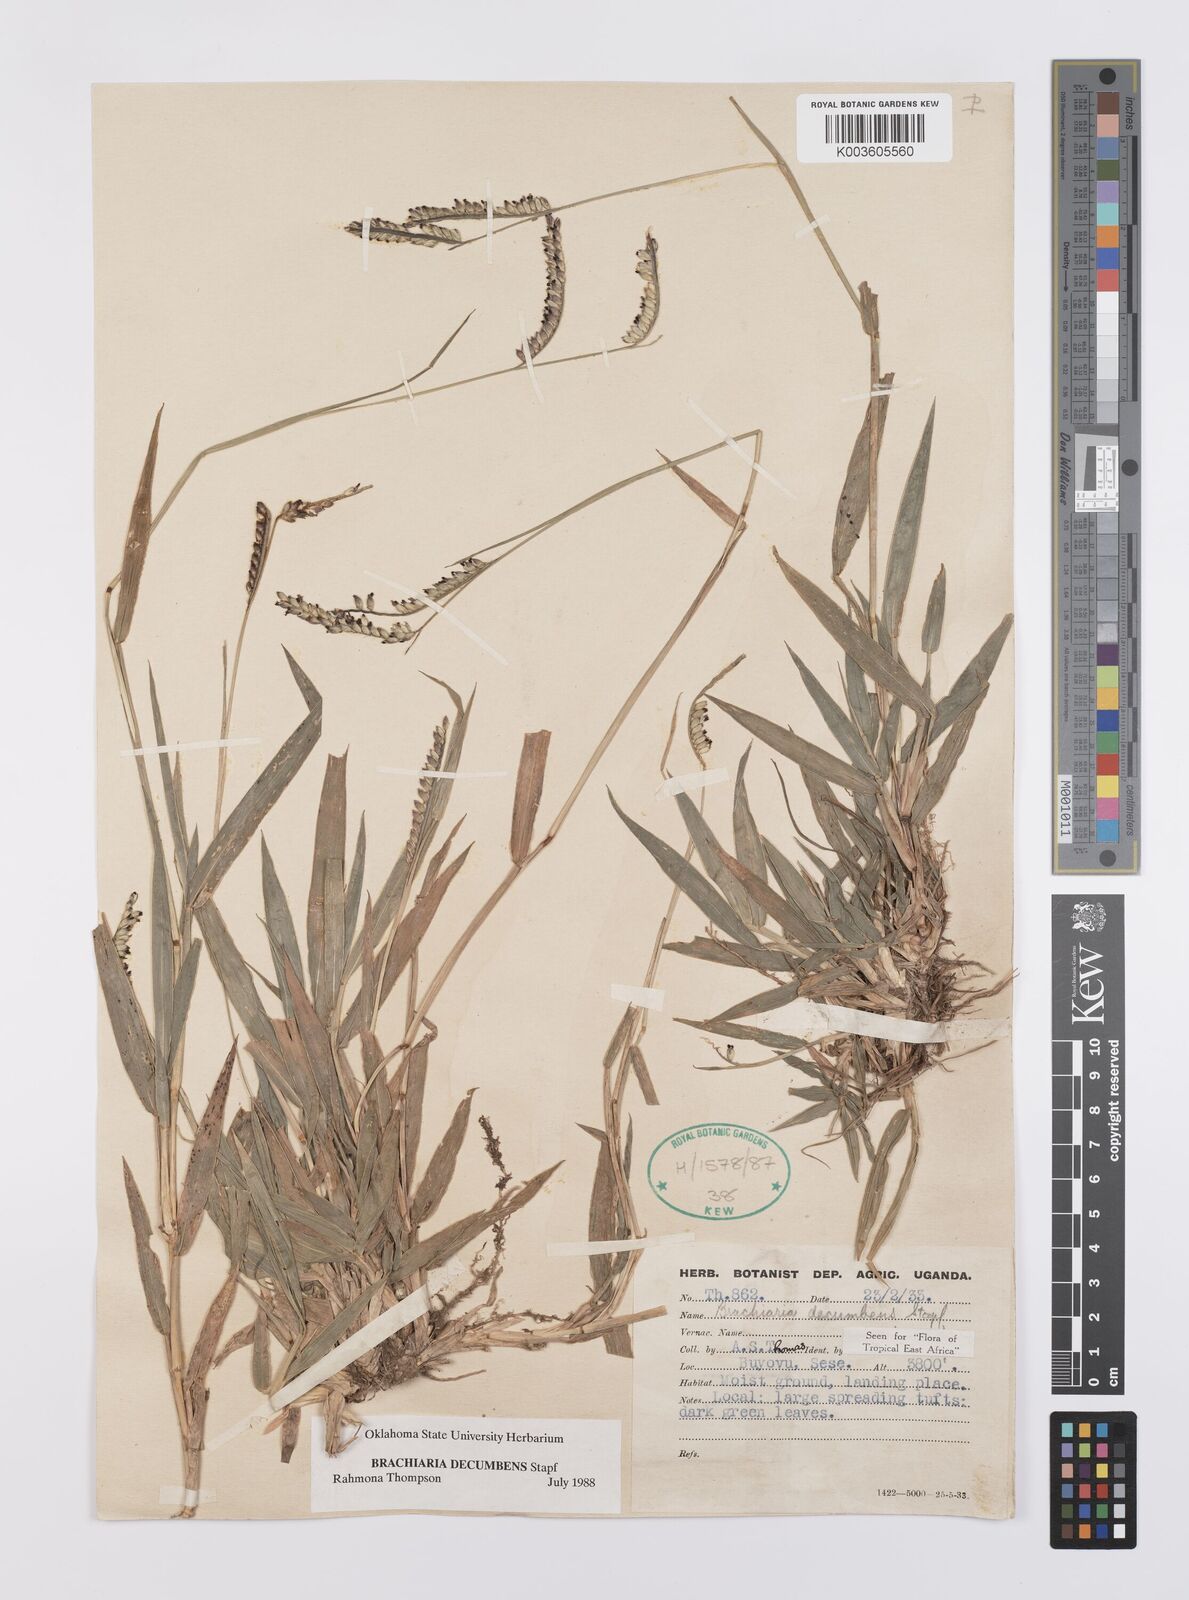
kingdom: Plantae
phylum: Tracheophyta
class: Liliopsida
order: Poales
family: Poaceae
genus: Urochloa
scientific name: Urochloa eminii
